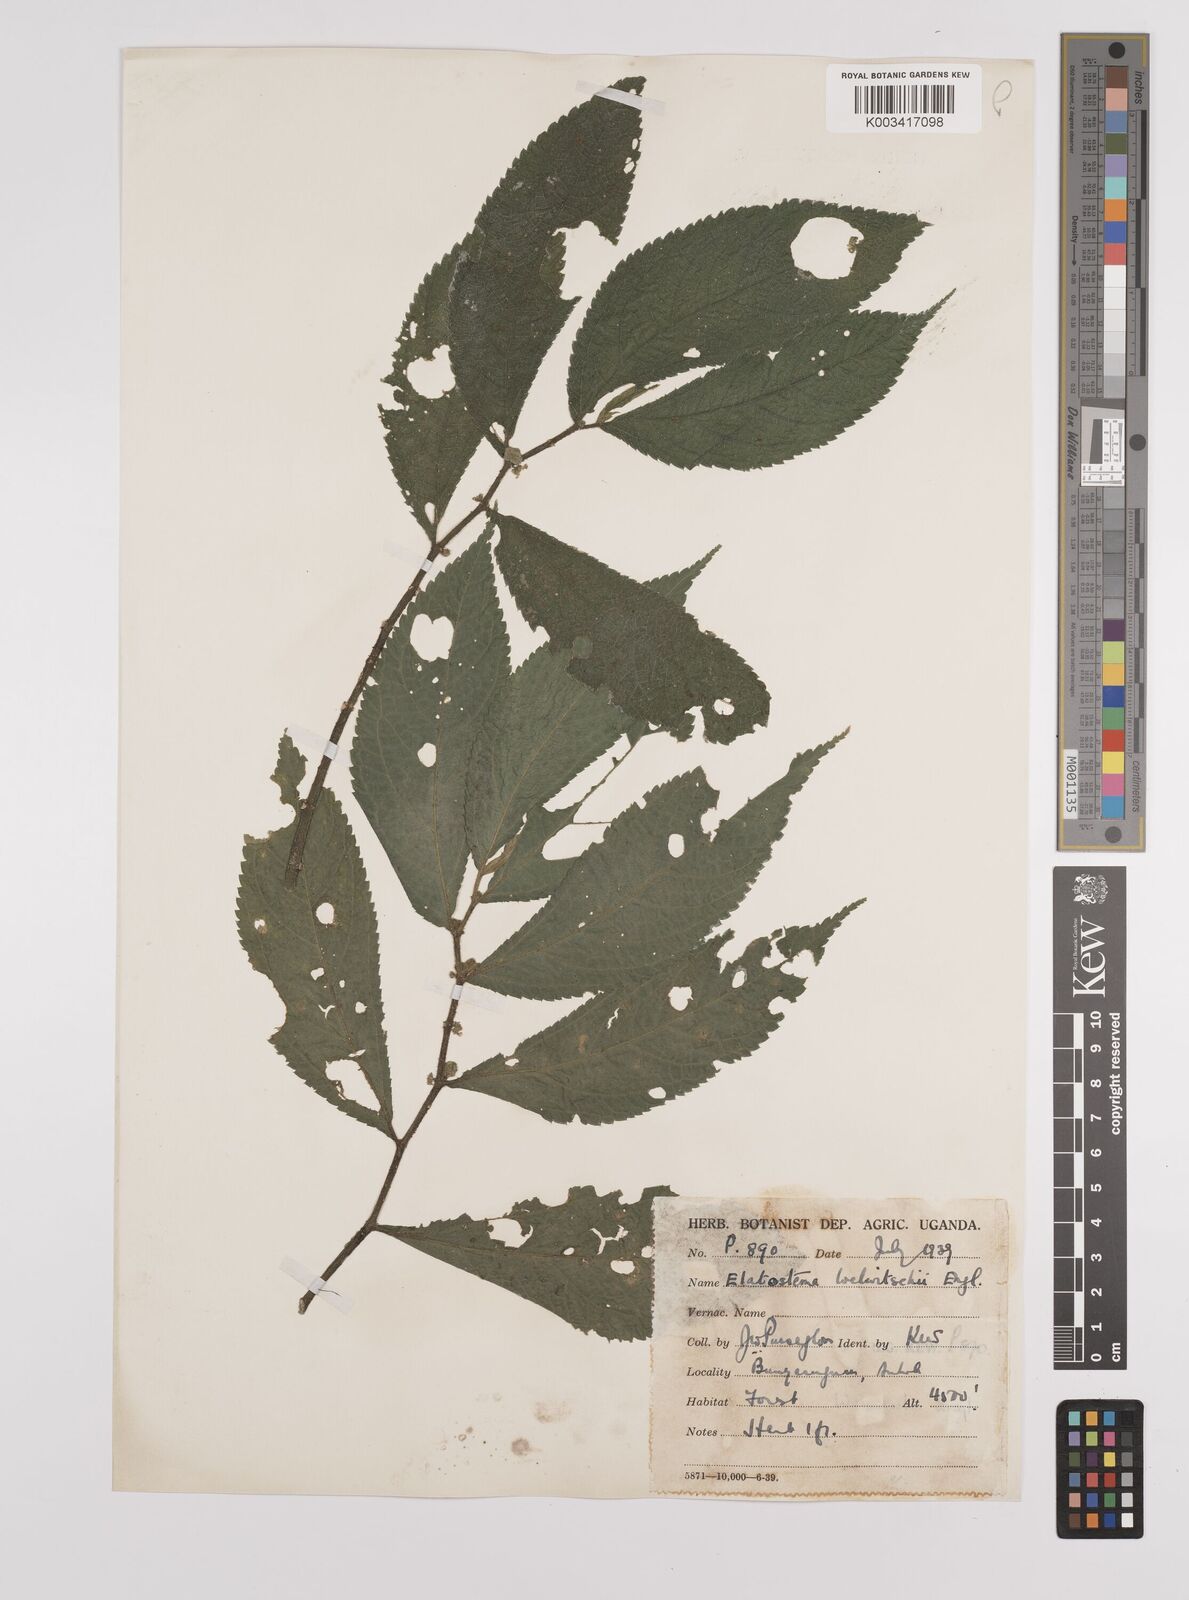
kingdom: Plantae
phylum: Tracheophyta
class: Magnoliopsida
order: Rosales
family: Urticaceae
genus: Elatostema
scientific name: Elatostema welwitschii
